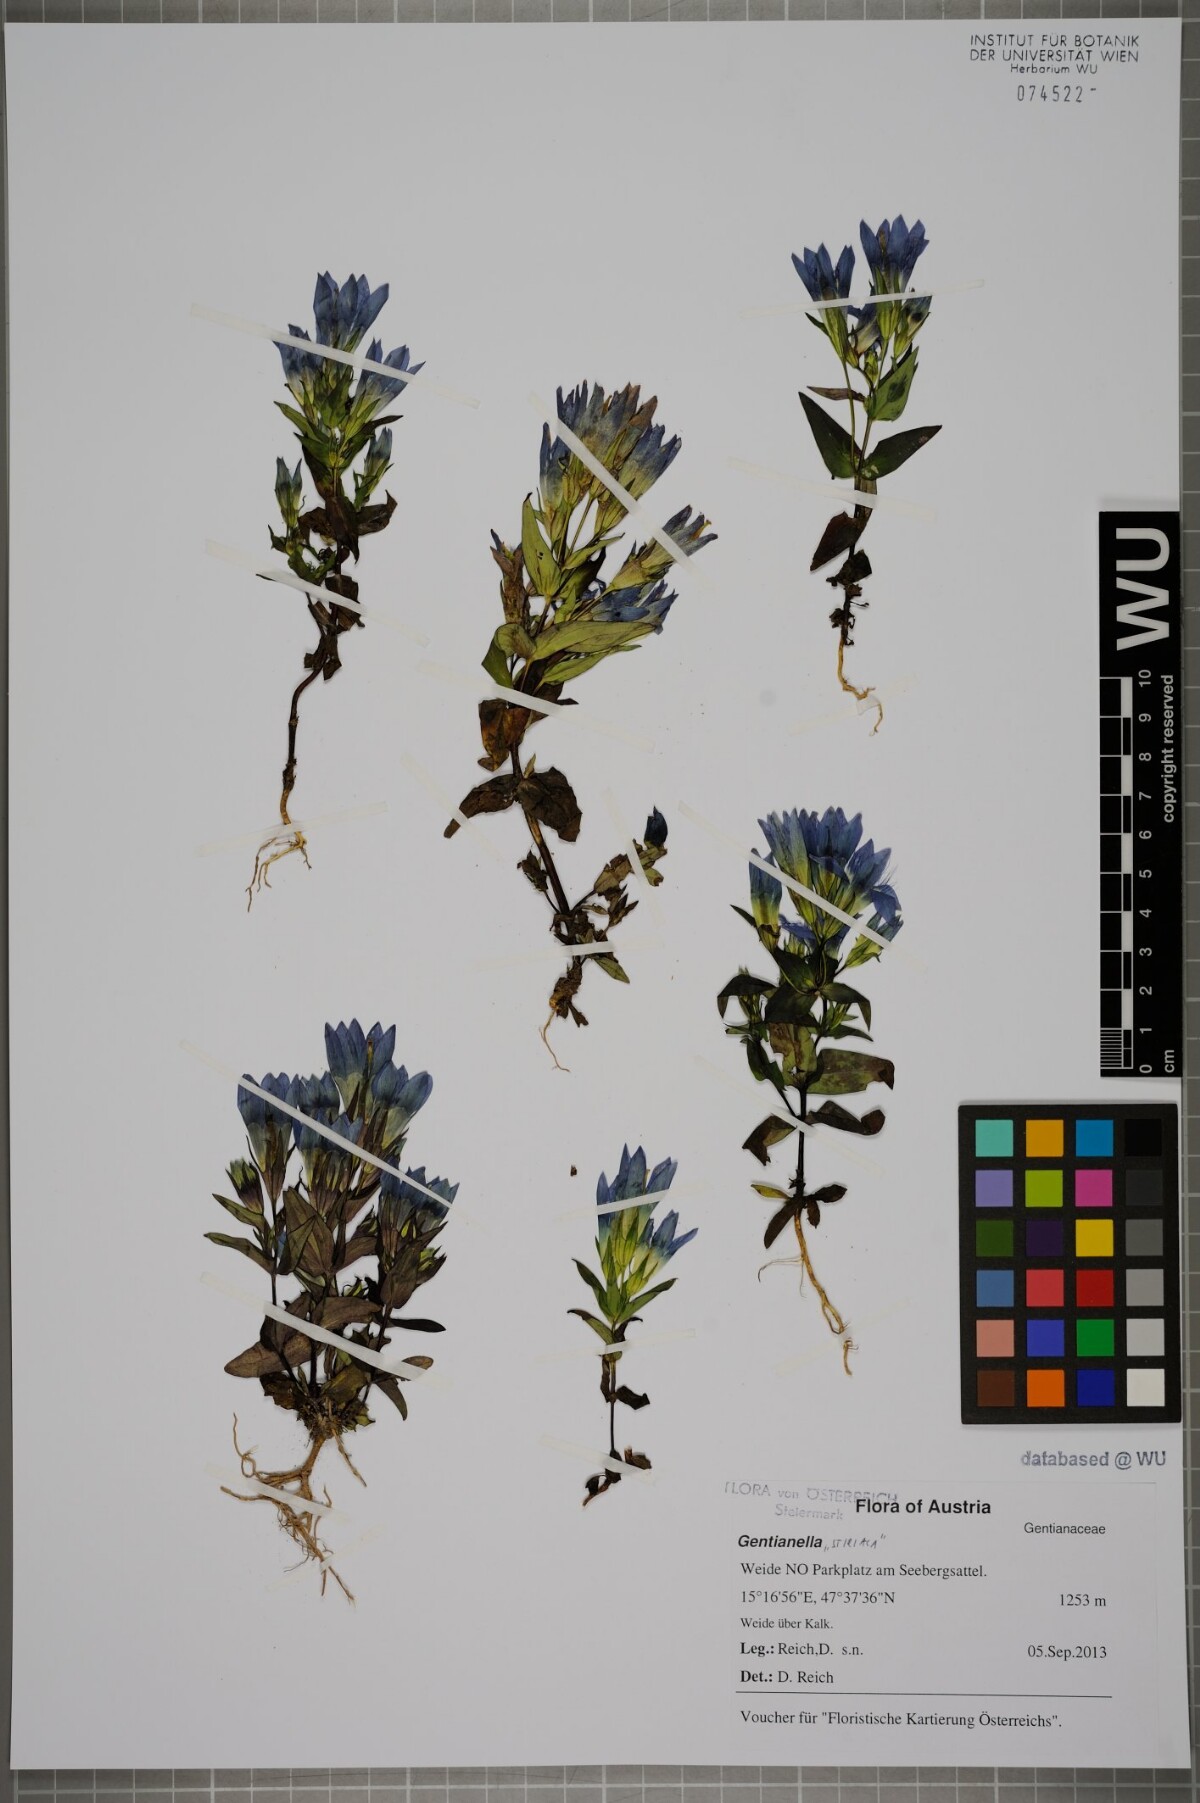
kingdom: Plantae
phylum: Tracheophyta
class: Magnoliopsida
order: Gentianales
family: Gentianaceae
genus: Gentianella
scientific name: Gentianella
